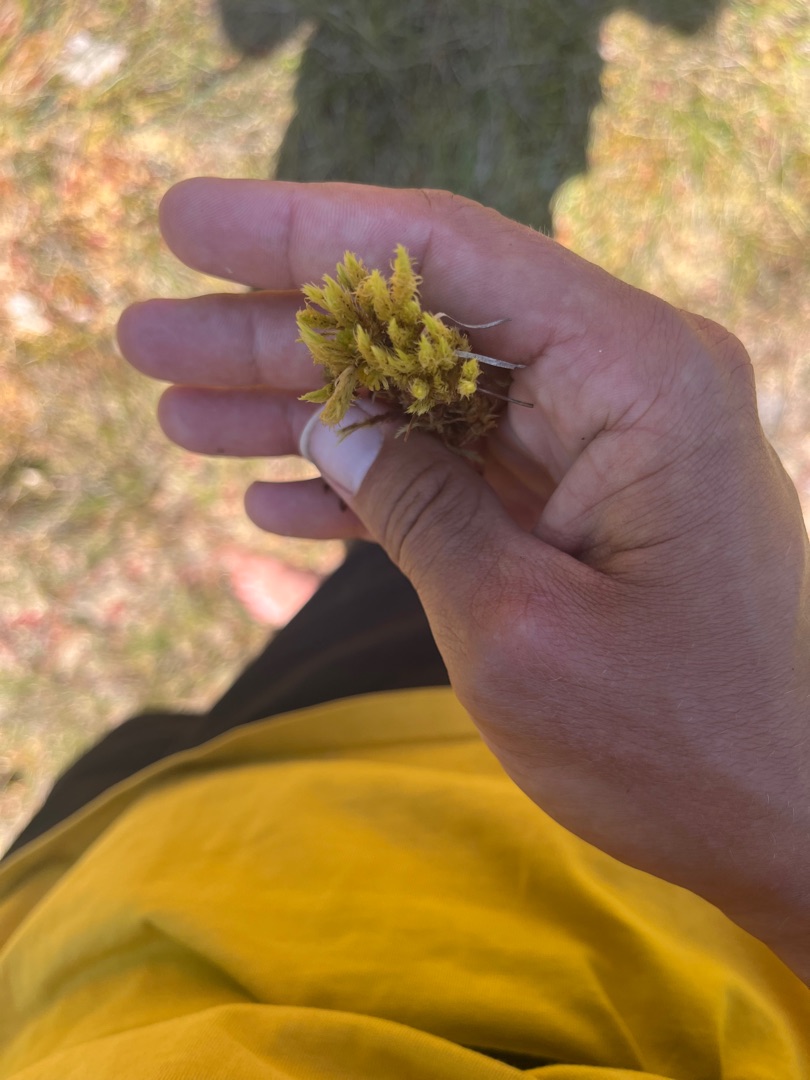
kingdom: Plantae
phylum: Bryophyta
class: Bryopsida
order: Aulacomniales
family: Aulacomniaceae
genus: Aulacomnium
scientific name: Aulacomnium palustre
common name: Almindelig filtmos
